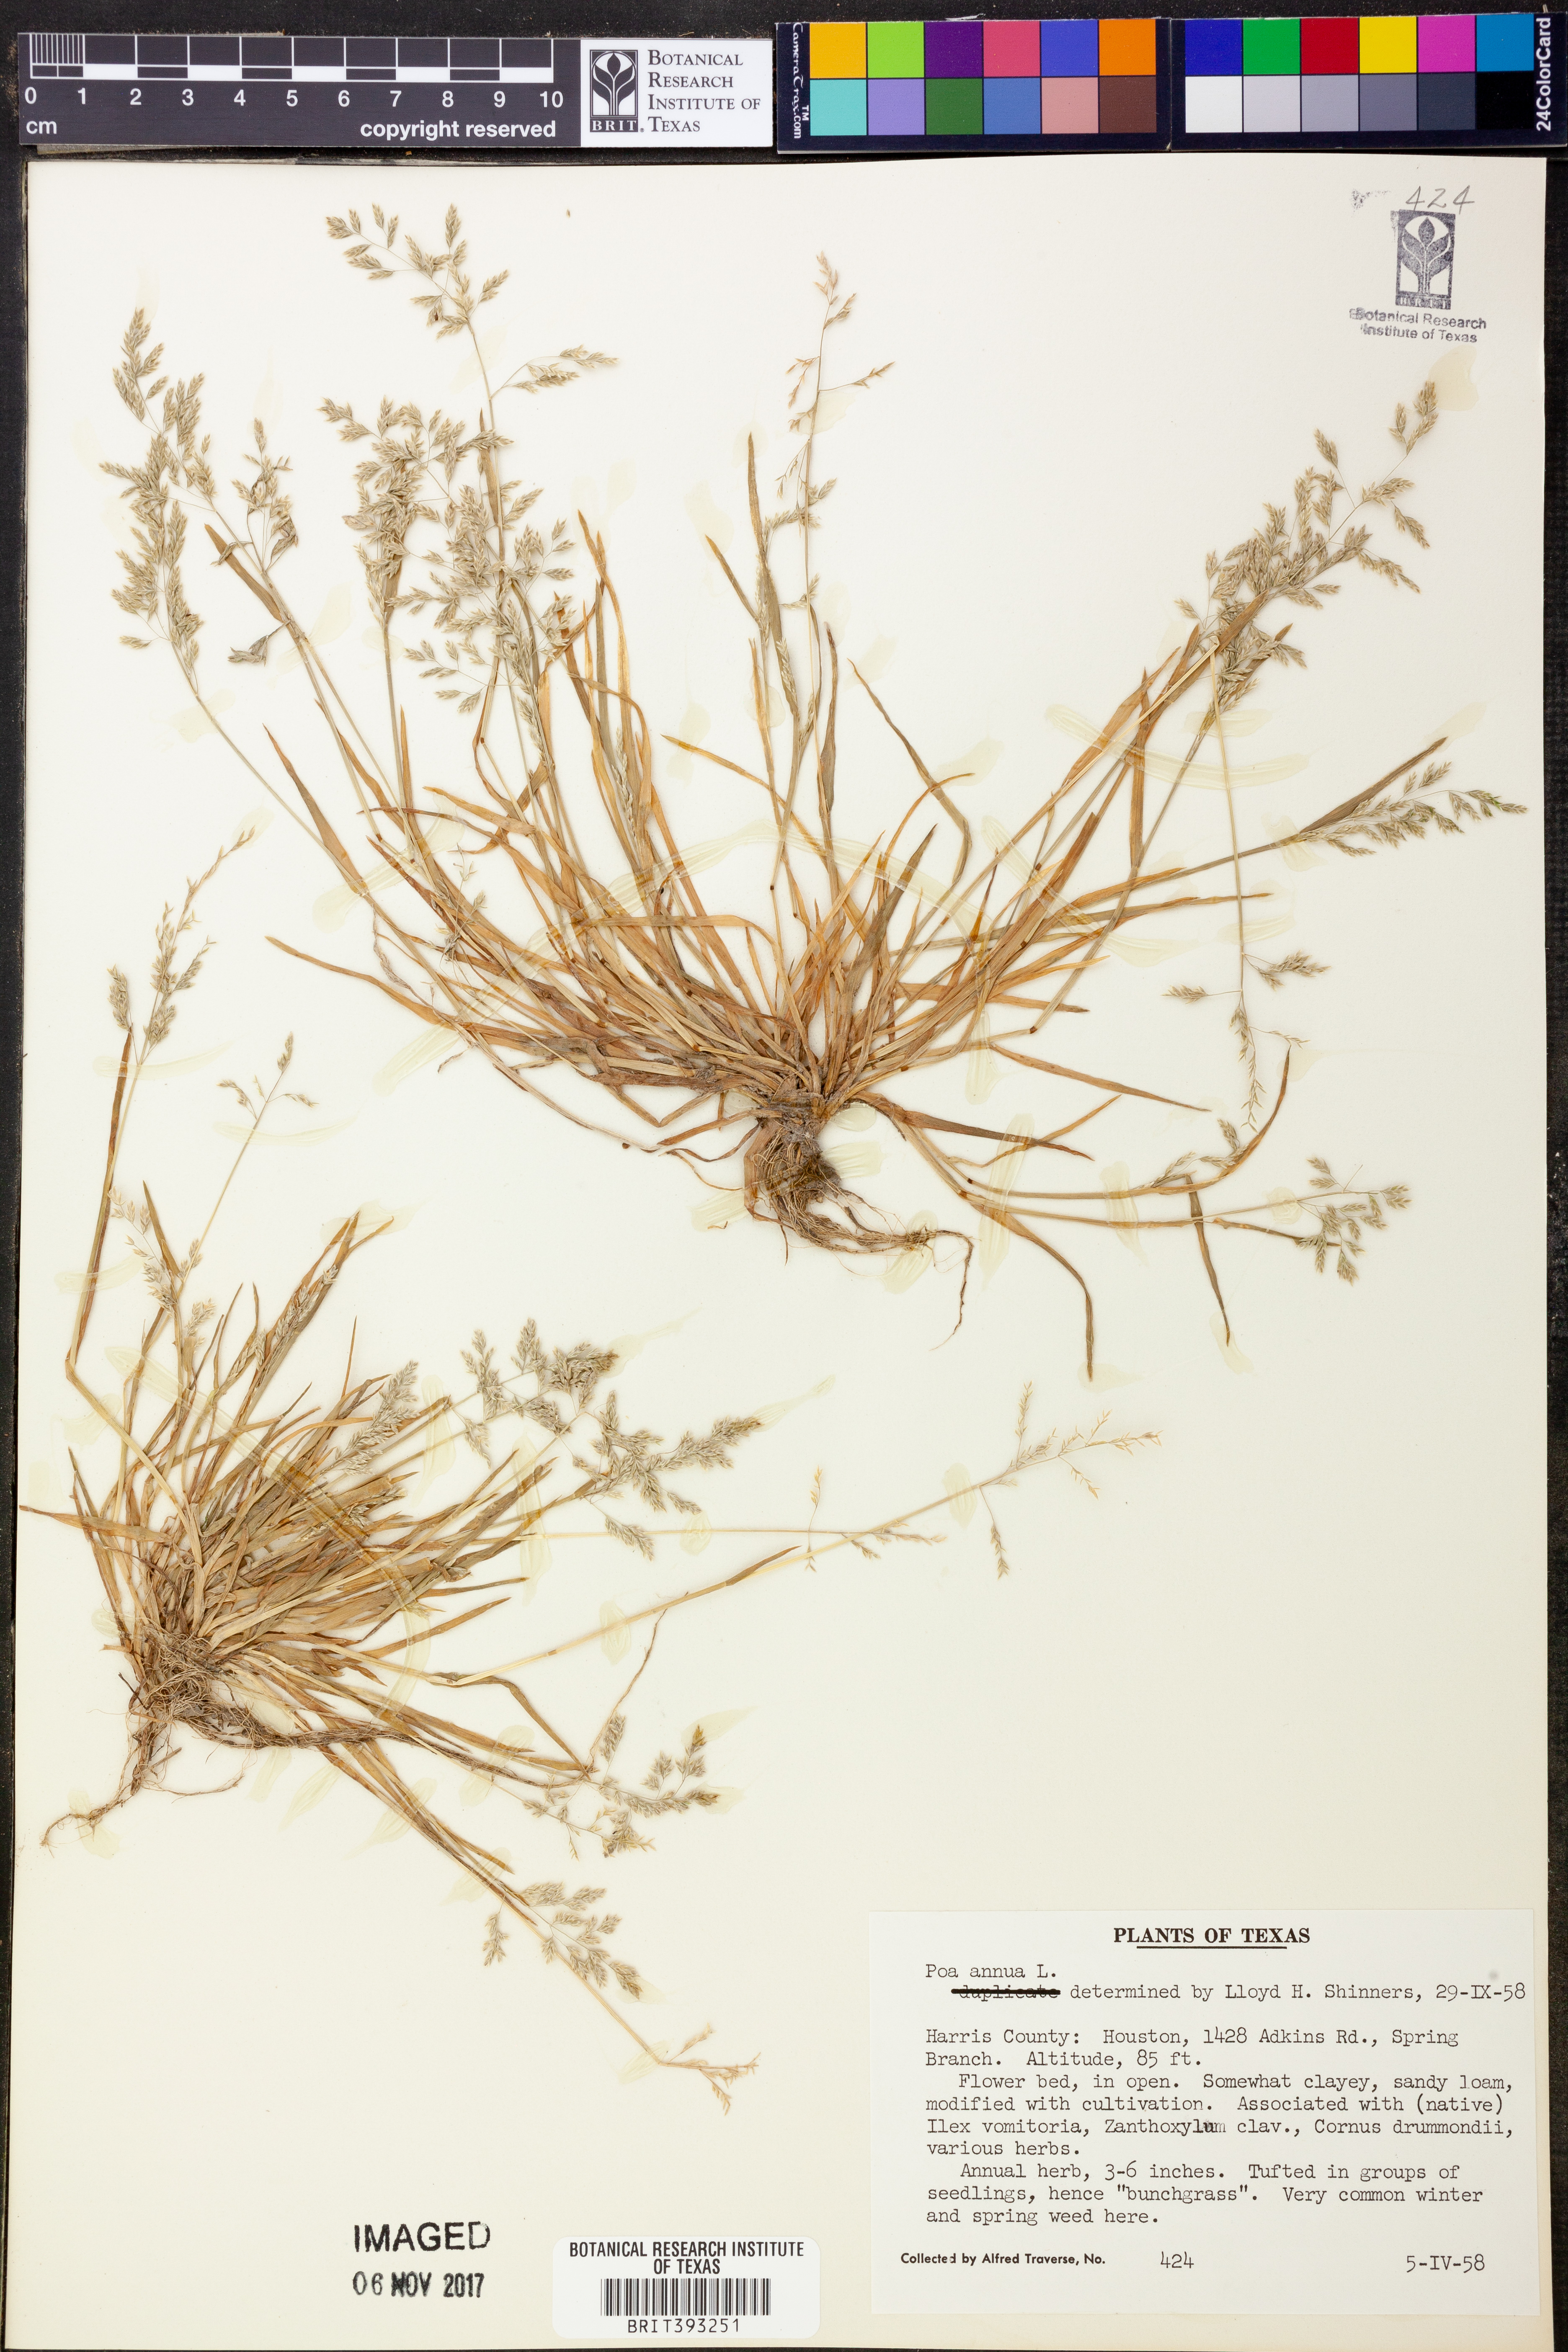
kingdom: Plantae
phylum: Tracheophyta
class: Liliopsida
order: Poales
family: Poaceae
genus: Poa
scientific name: Poa annua
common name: Annual bluegrass
